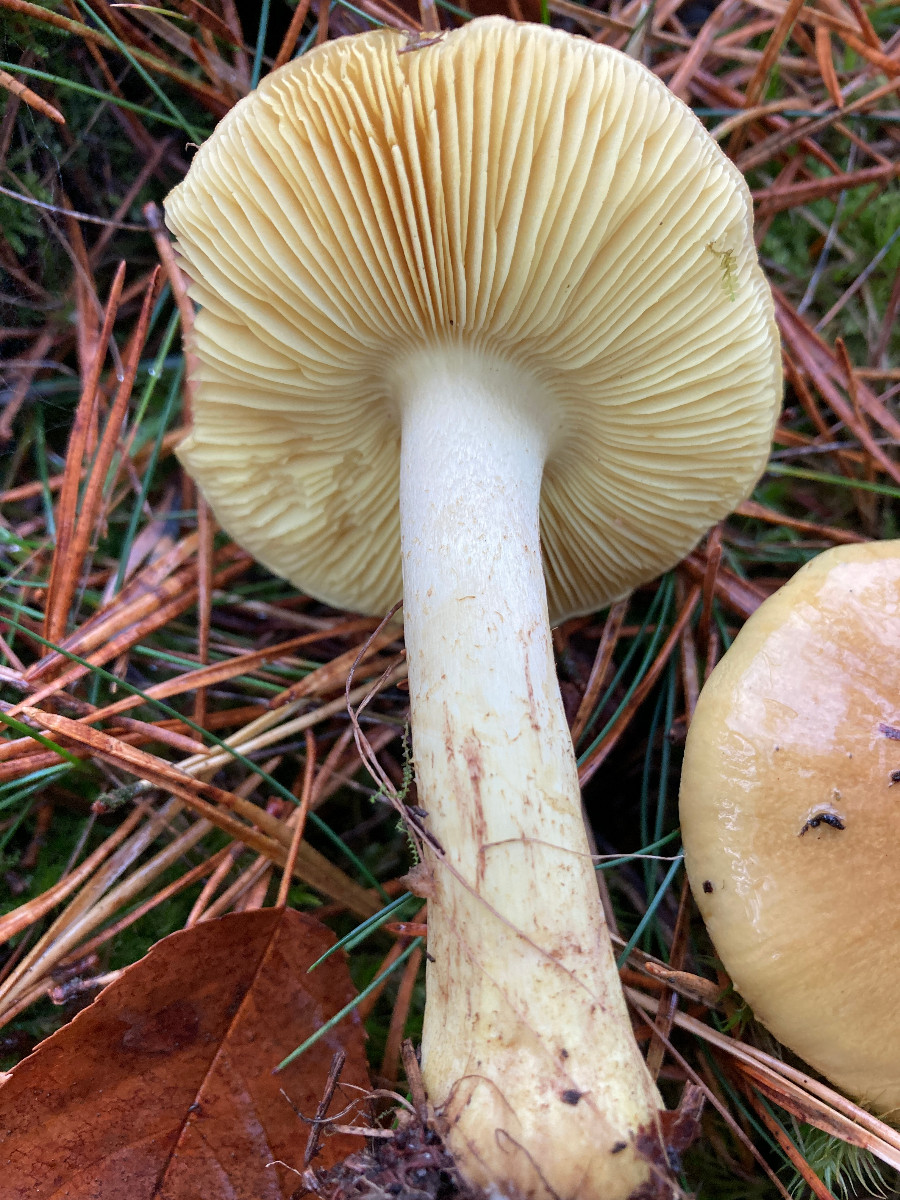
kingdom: Fungi
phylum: Basidiomycota
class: Agaricomycetes
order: Agaricales
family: Tricholomataceae
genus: Tricholoma
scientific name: Tricholoma equestre
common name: ægte ridderhat
